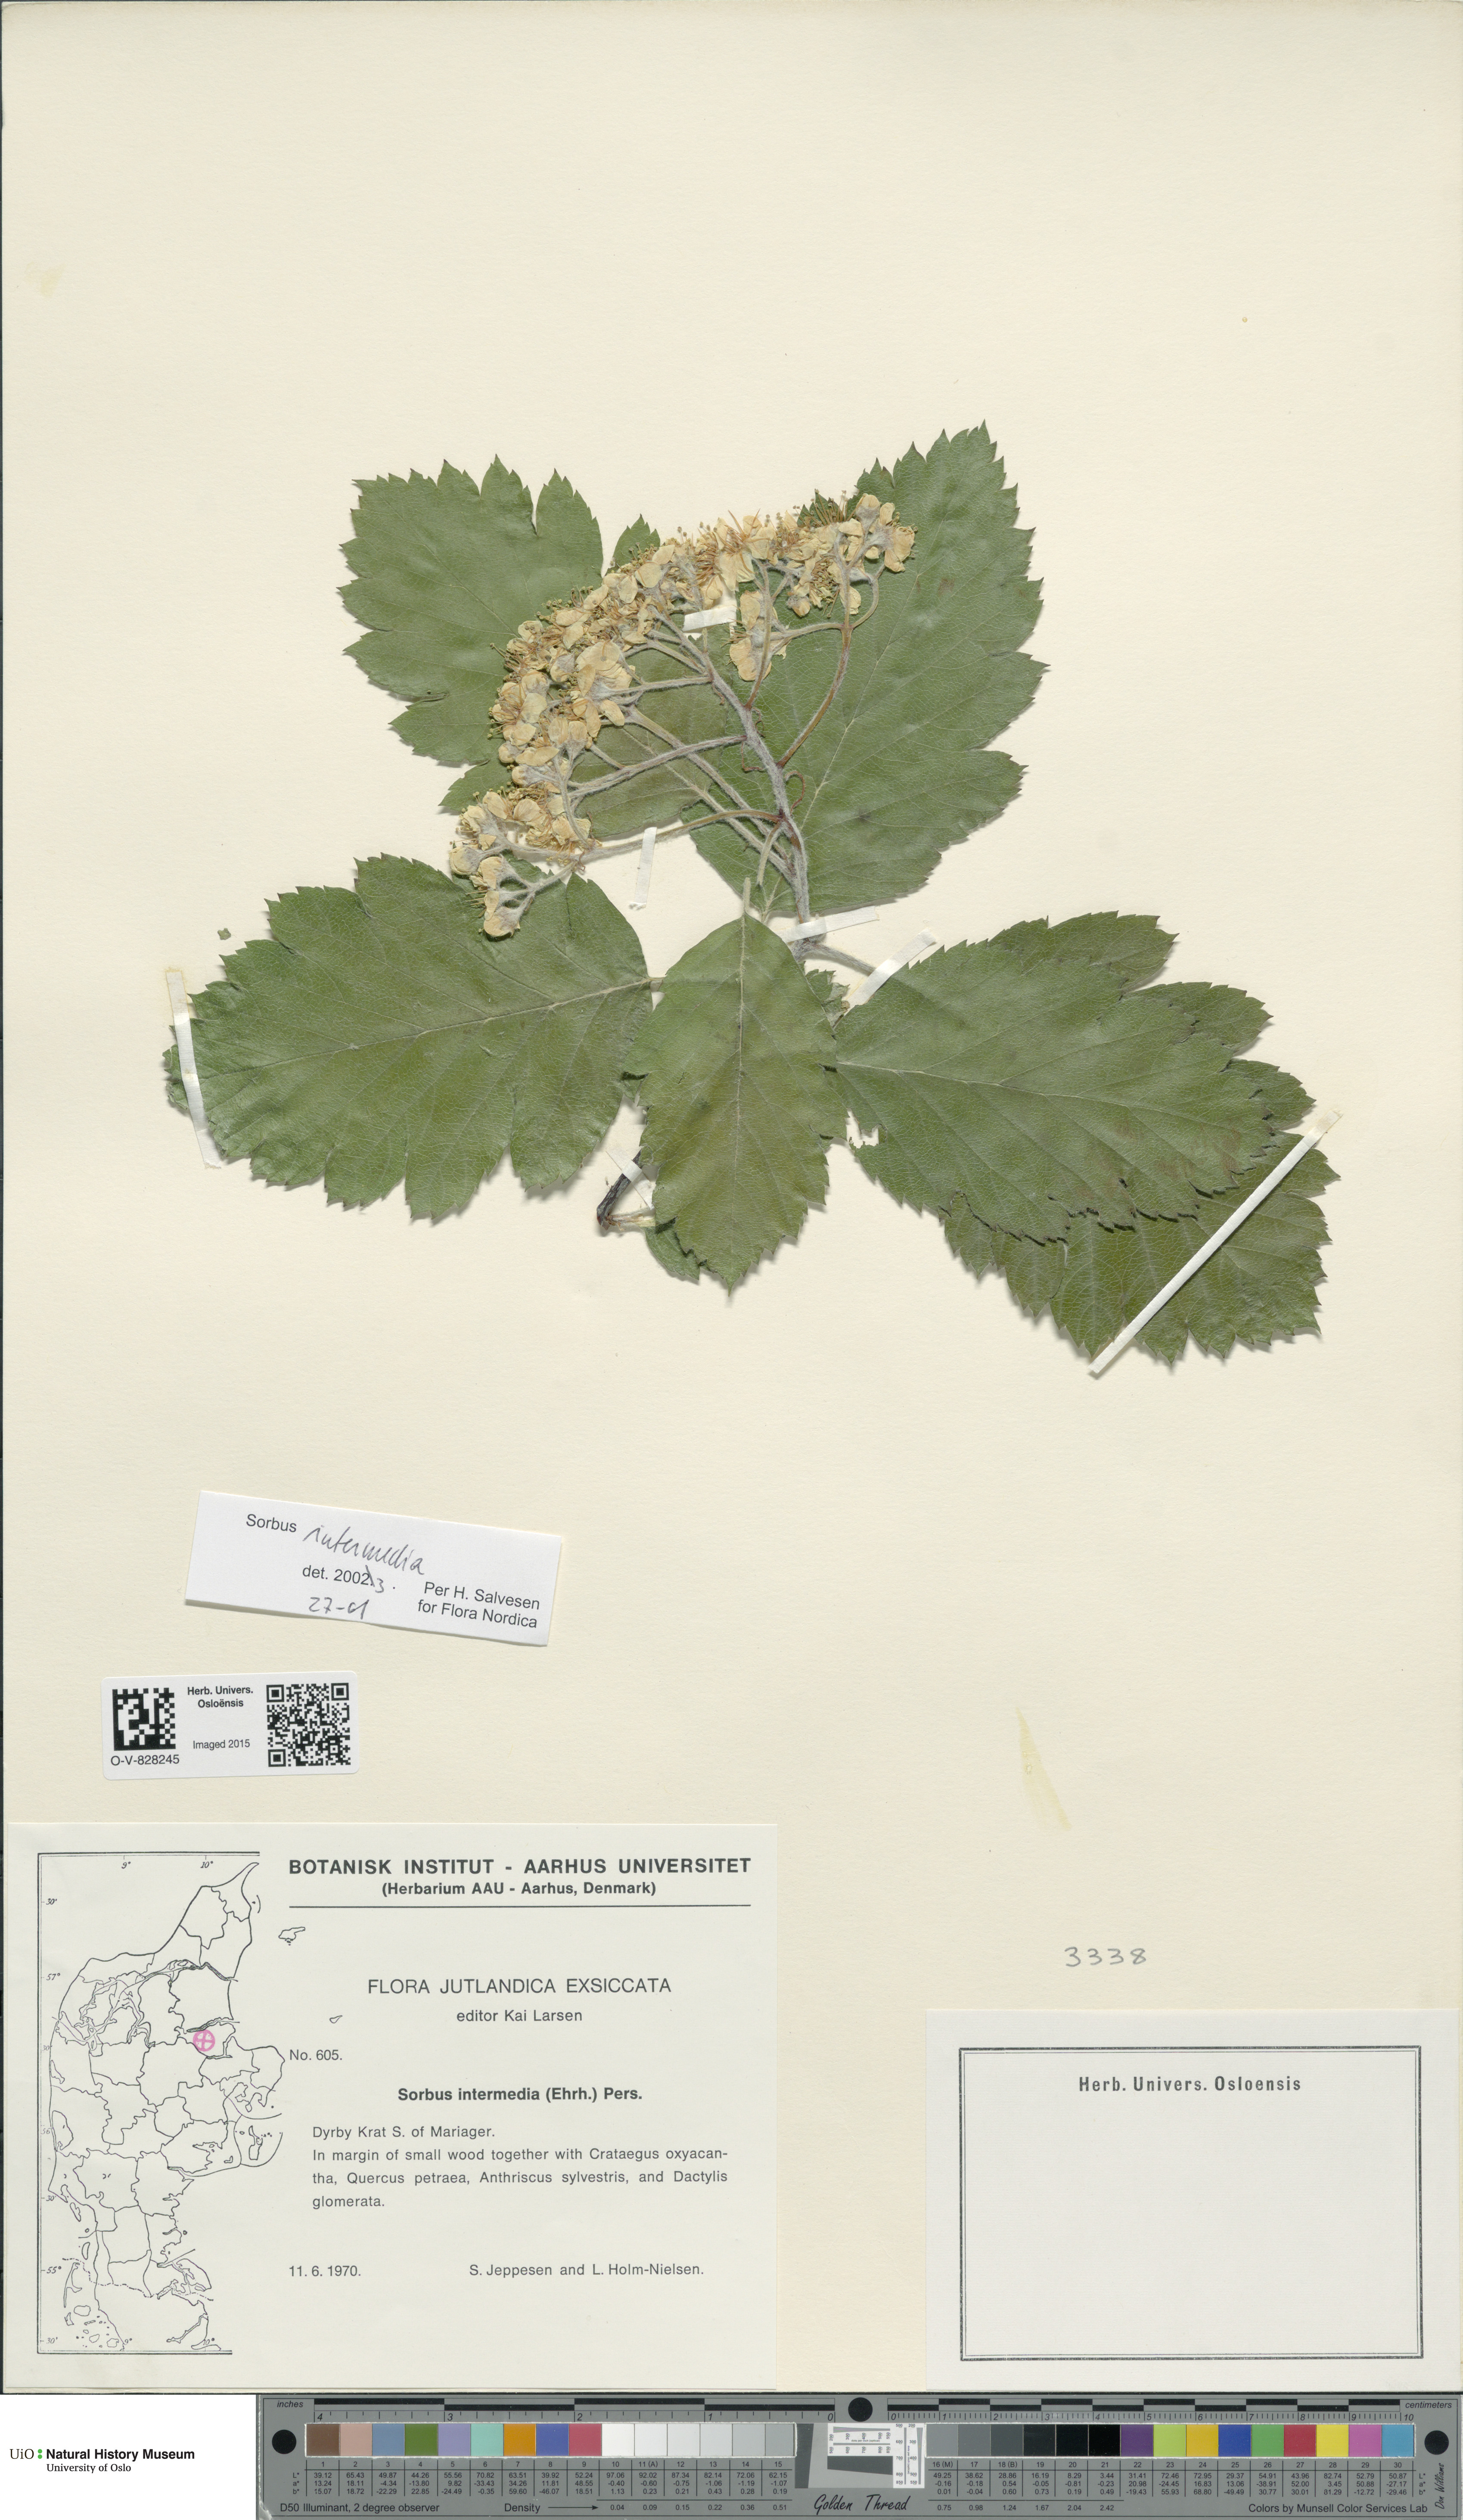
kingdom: Plantae
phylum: Tracheophyta
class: Magnoliopsida
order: Rosales
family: Rosaceae
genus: Scandosorbus
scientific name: Scandosorbus intermedia
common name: Swedish whitebeam
